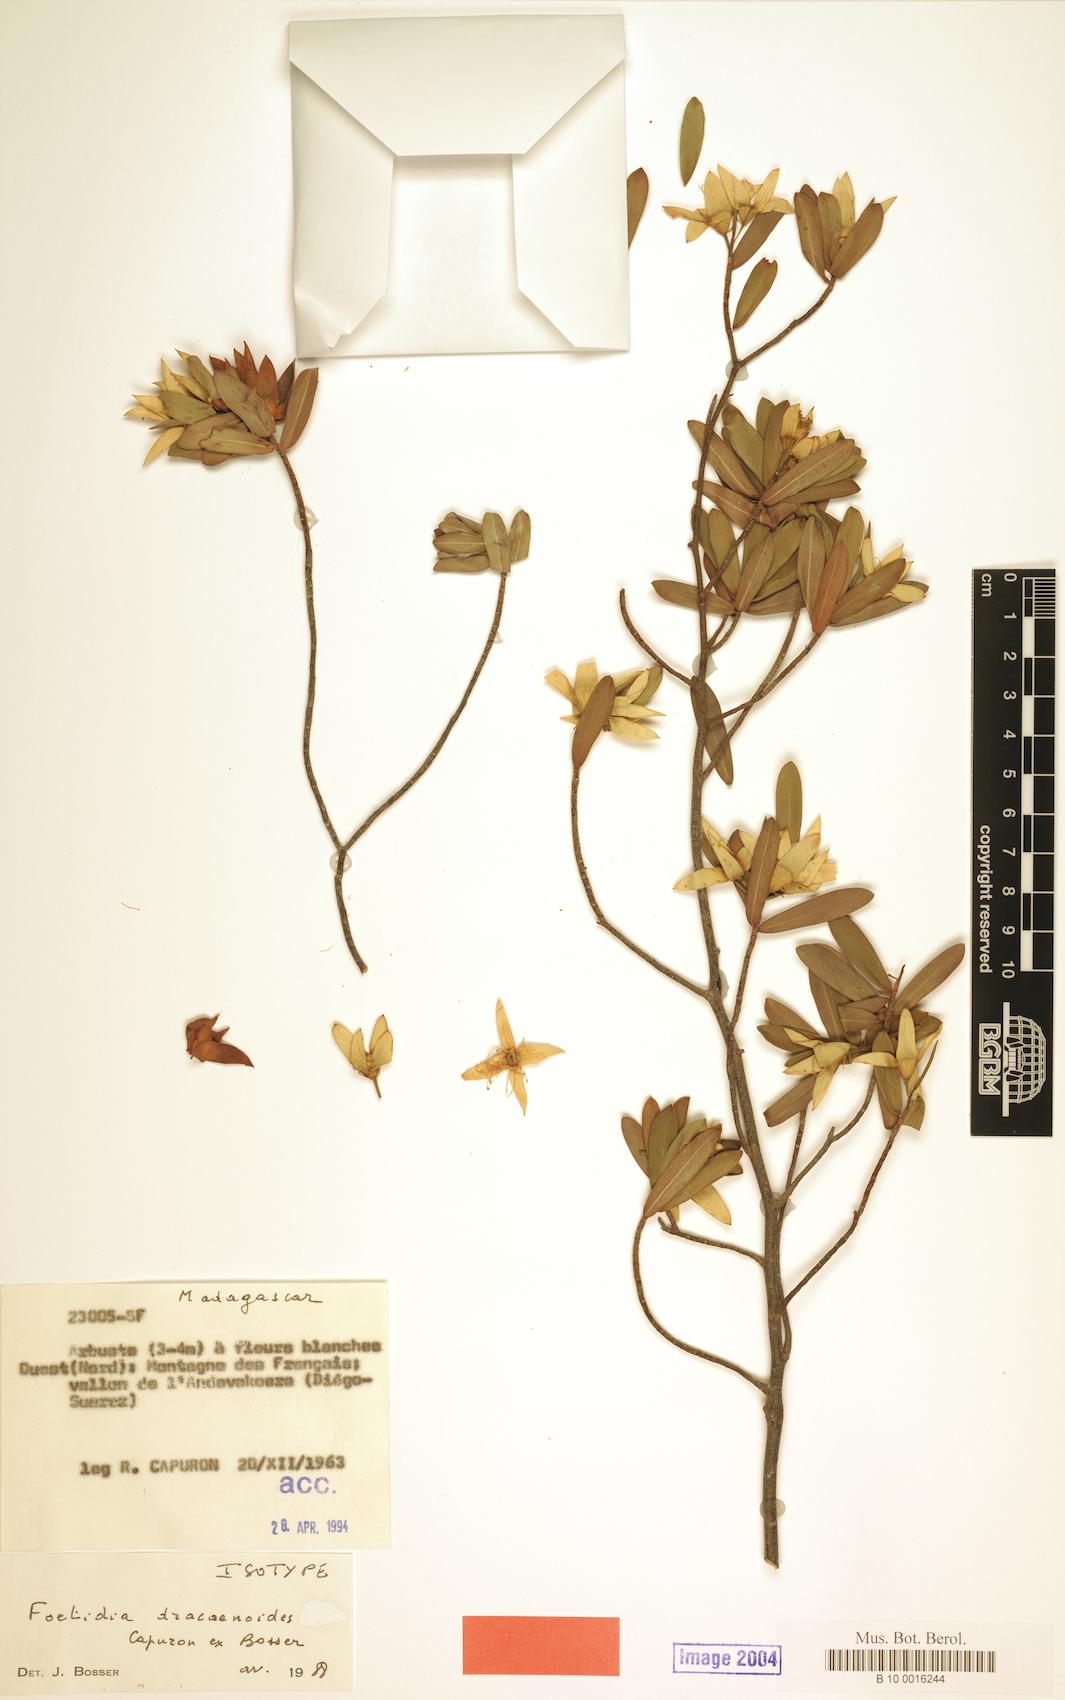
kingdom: Plantae
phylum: Tracheophyta
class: Magnoliopsida
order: Ericales
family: Lecythidaceae
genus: Foetidia
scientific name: Foetidia dracaenoides
